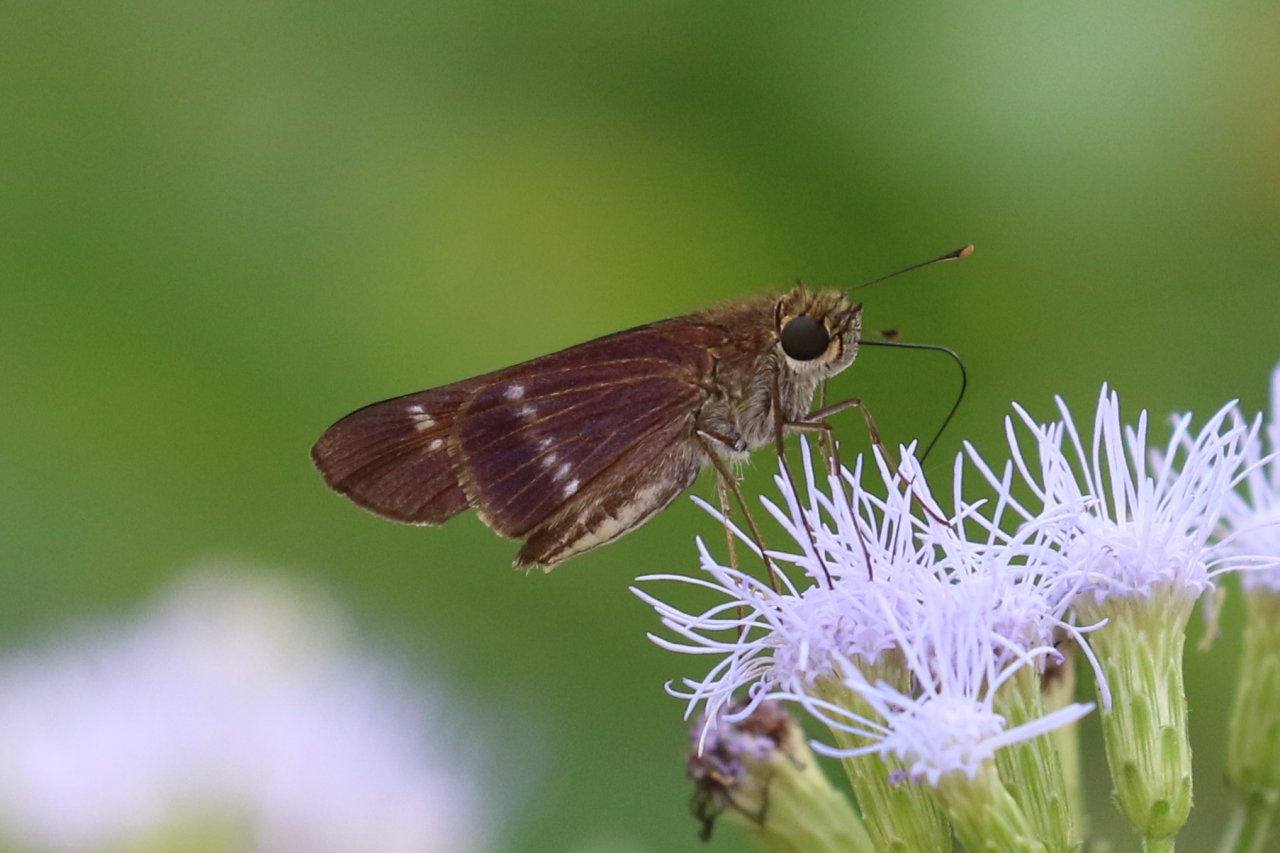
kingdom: Animalia
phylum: Arthropoda
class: Insecta
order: Lepidoptera
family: Hesperiidae
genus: Turesis
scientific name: Turesis lucas
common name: Purple-washed Skipper
